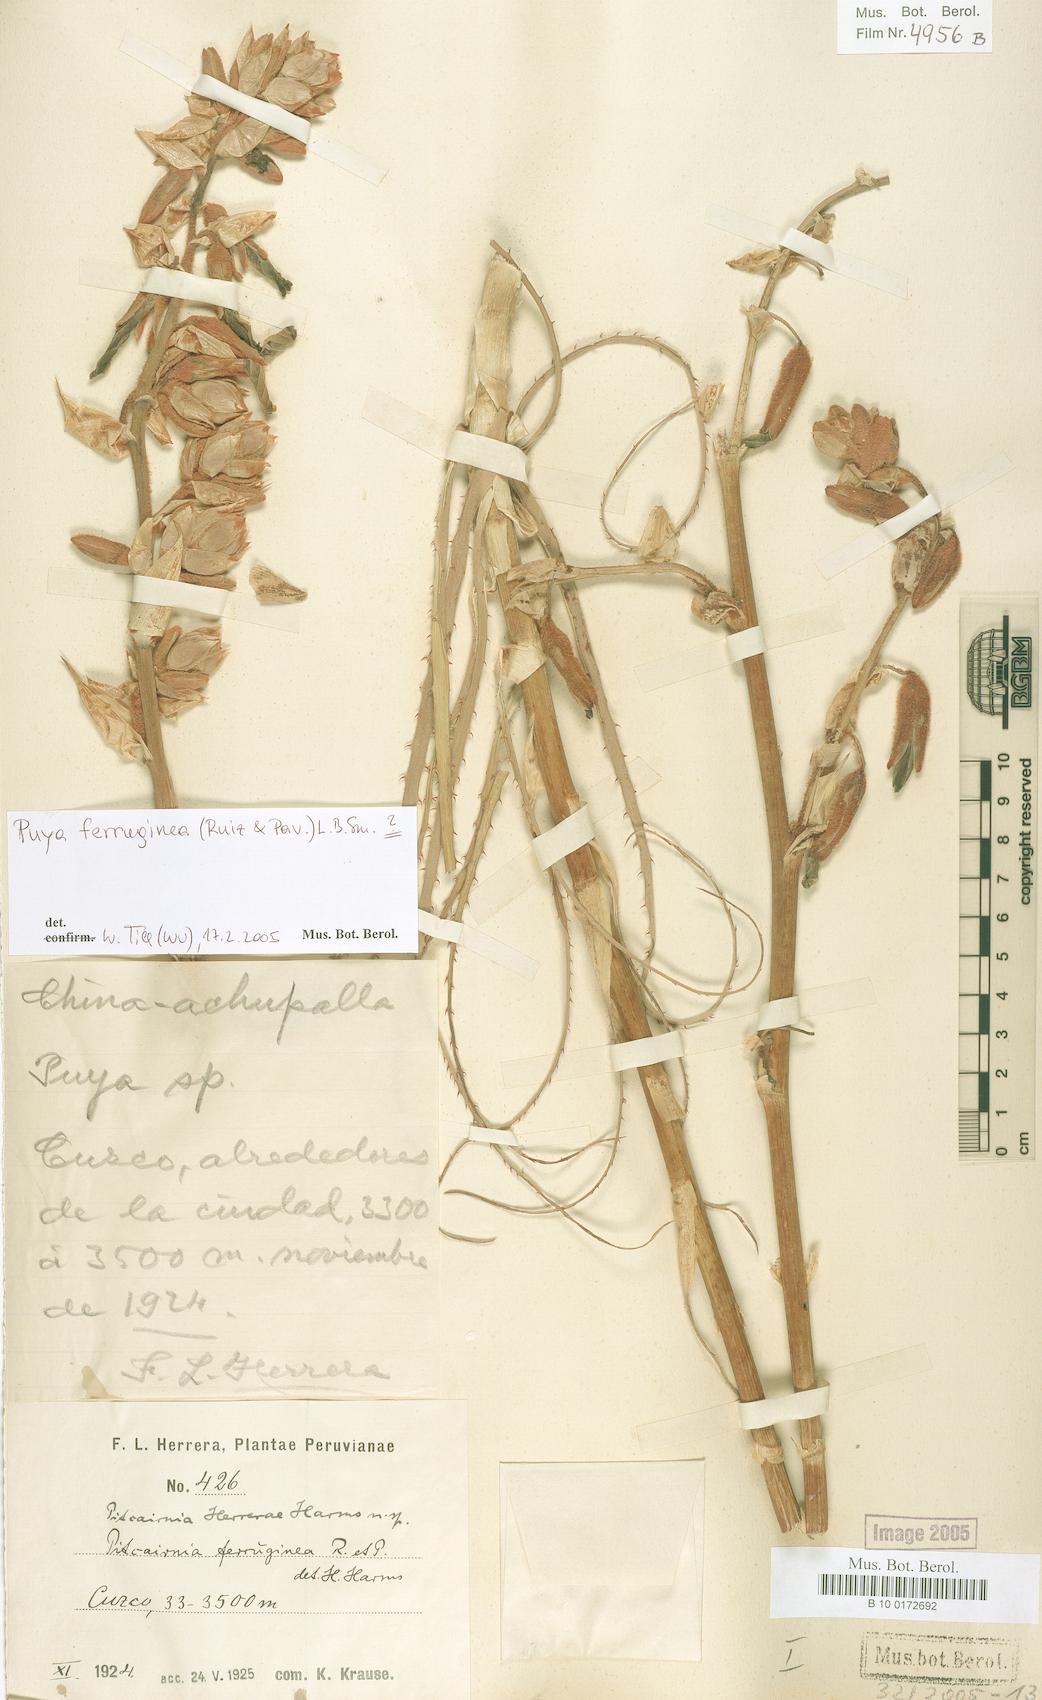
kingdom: Plantae
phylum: Tracheophyta
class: Liliopsida
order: Poales
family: Bromeliaceae
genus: Puya
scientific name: Puya ferruginea
